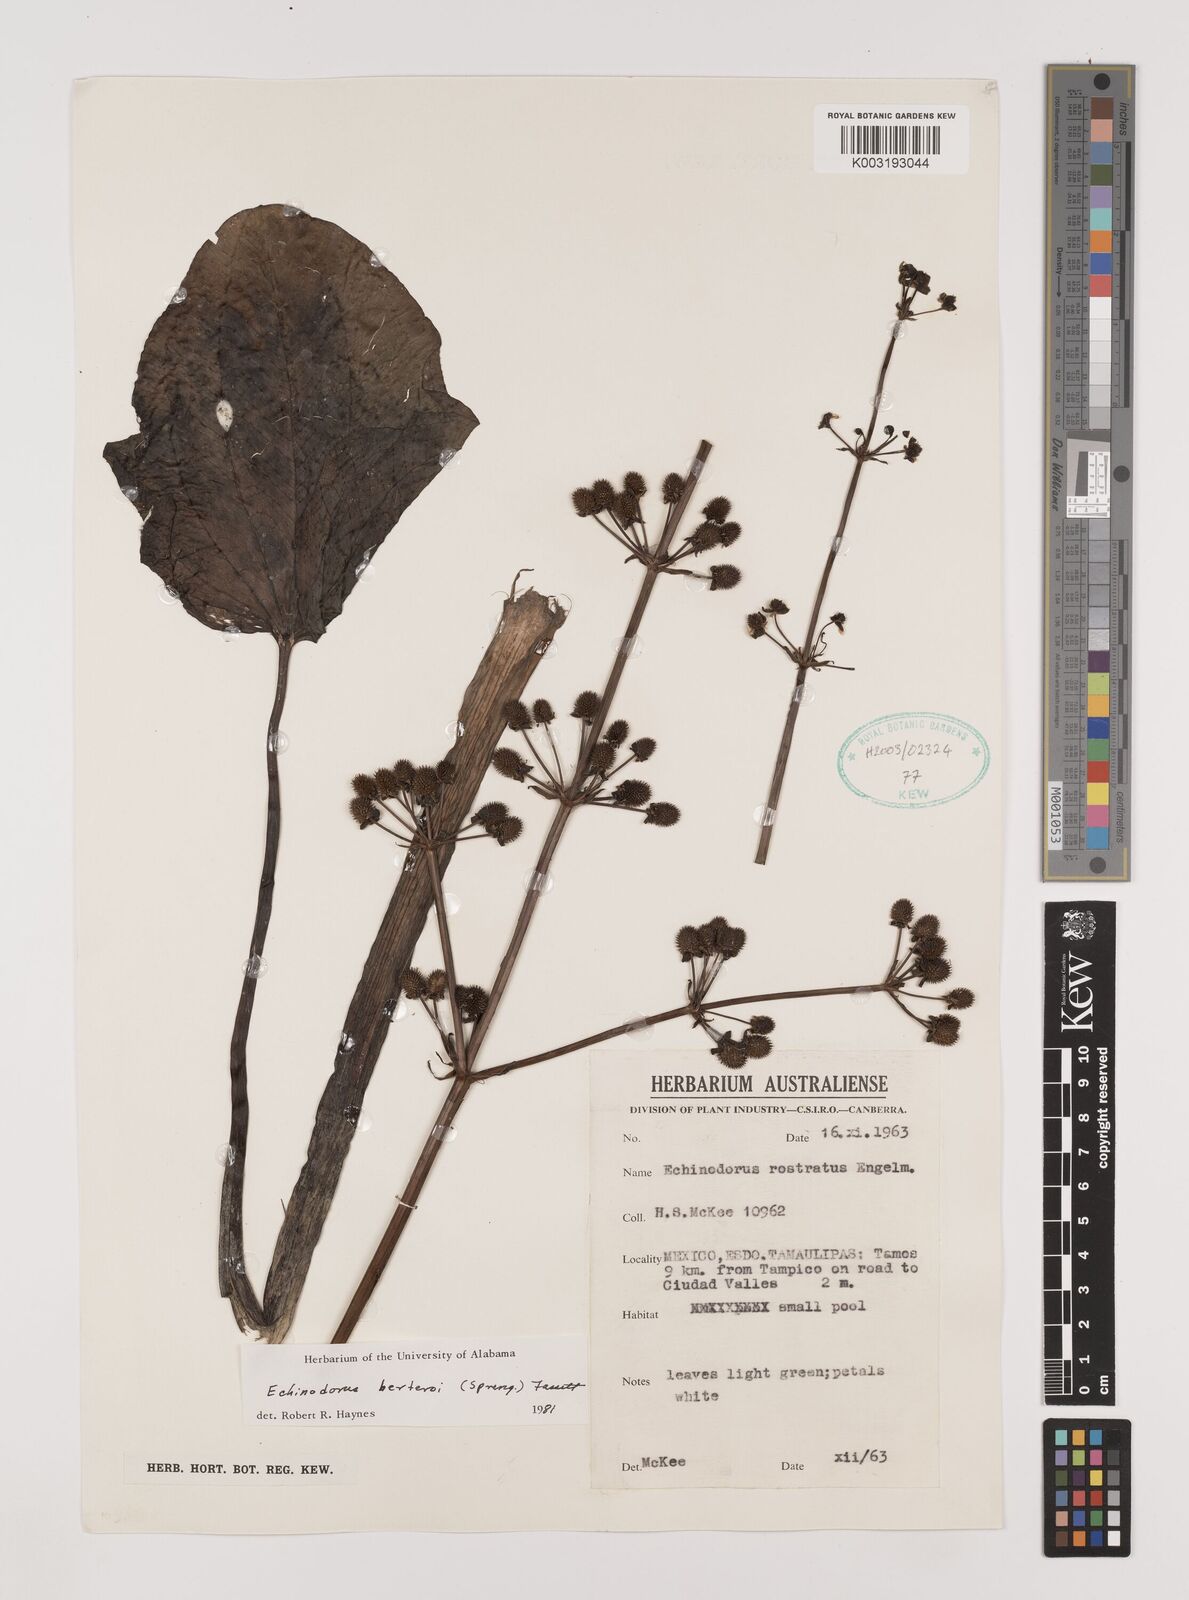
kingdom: Plantae
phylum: Tracheophyta
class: Liliopsida
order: Alismatales
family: Alismataceae
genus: Echinodorus
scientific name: Echinodorus berteroi
